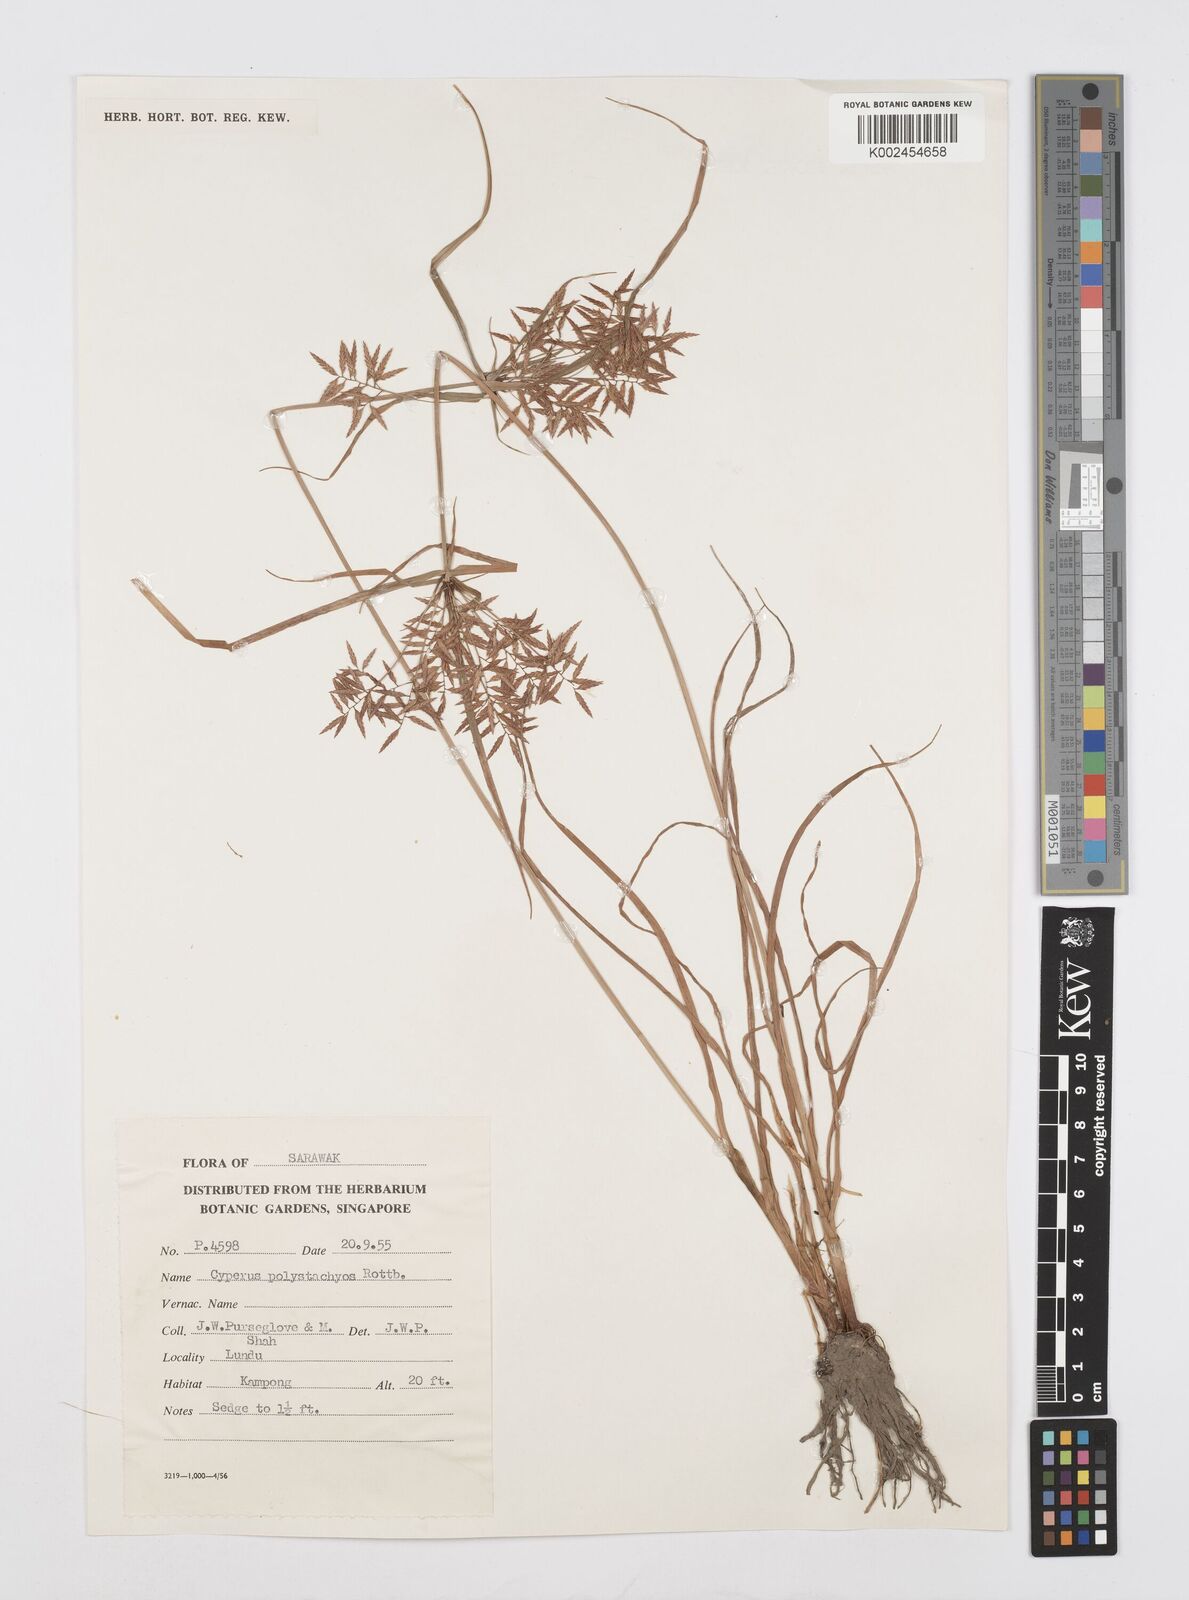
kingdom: Plantae
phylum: Tracheophyta
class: Liliopsida
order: Poales
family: Cyperaceae
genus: Cyperus
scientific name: Cyperus polystachyos
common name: Bunchy flat sedge
